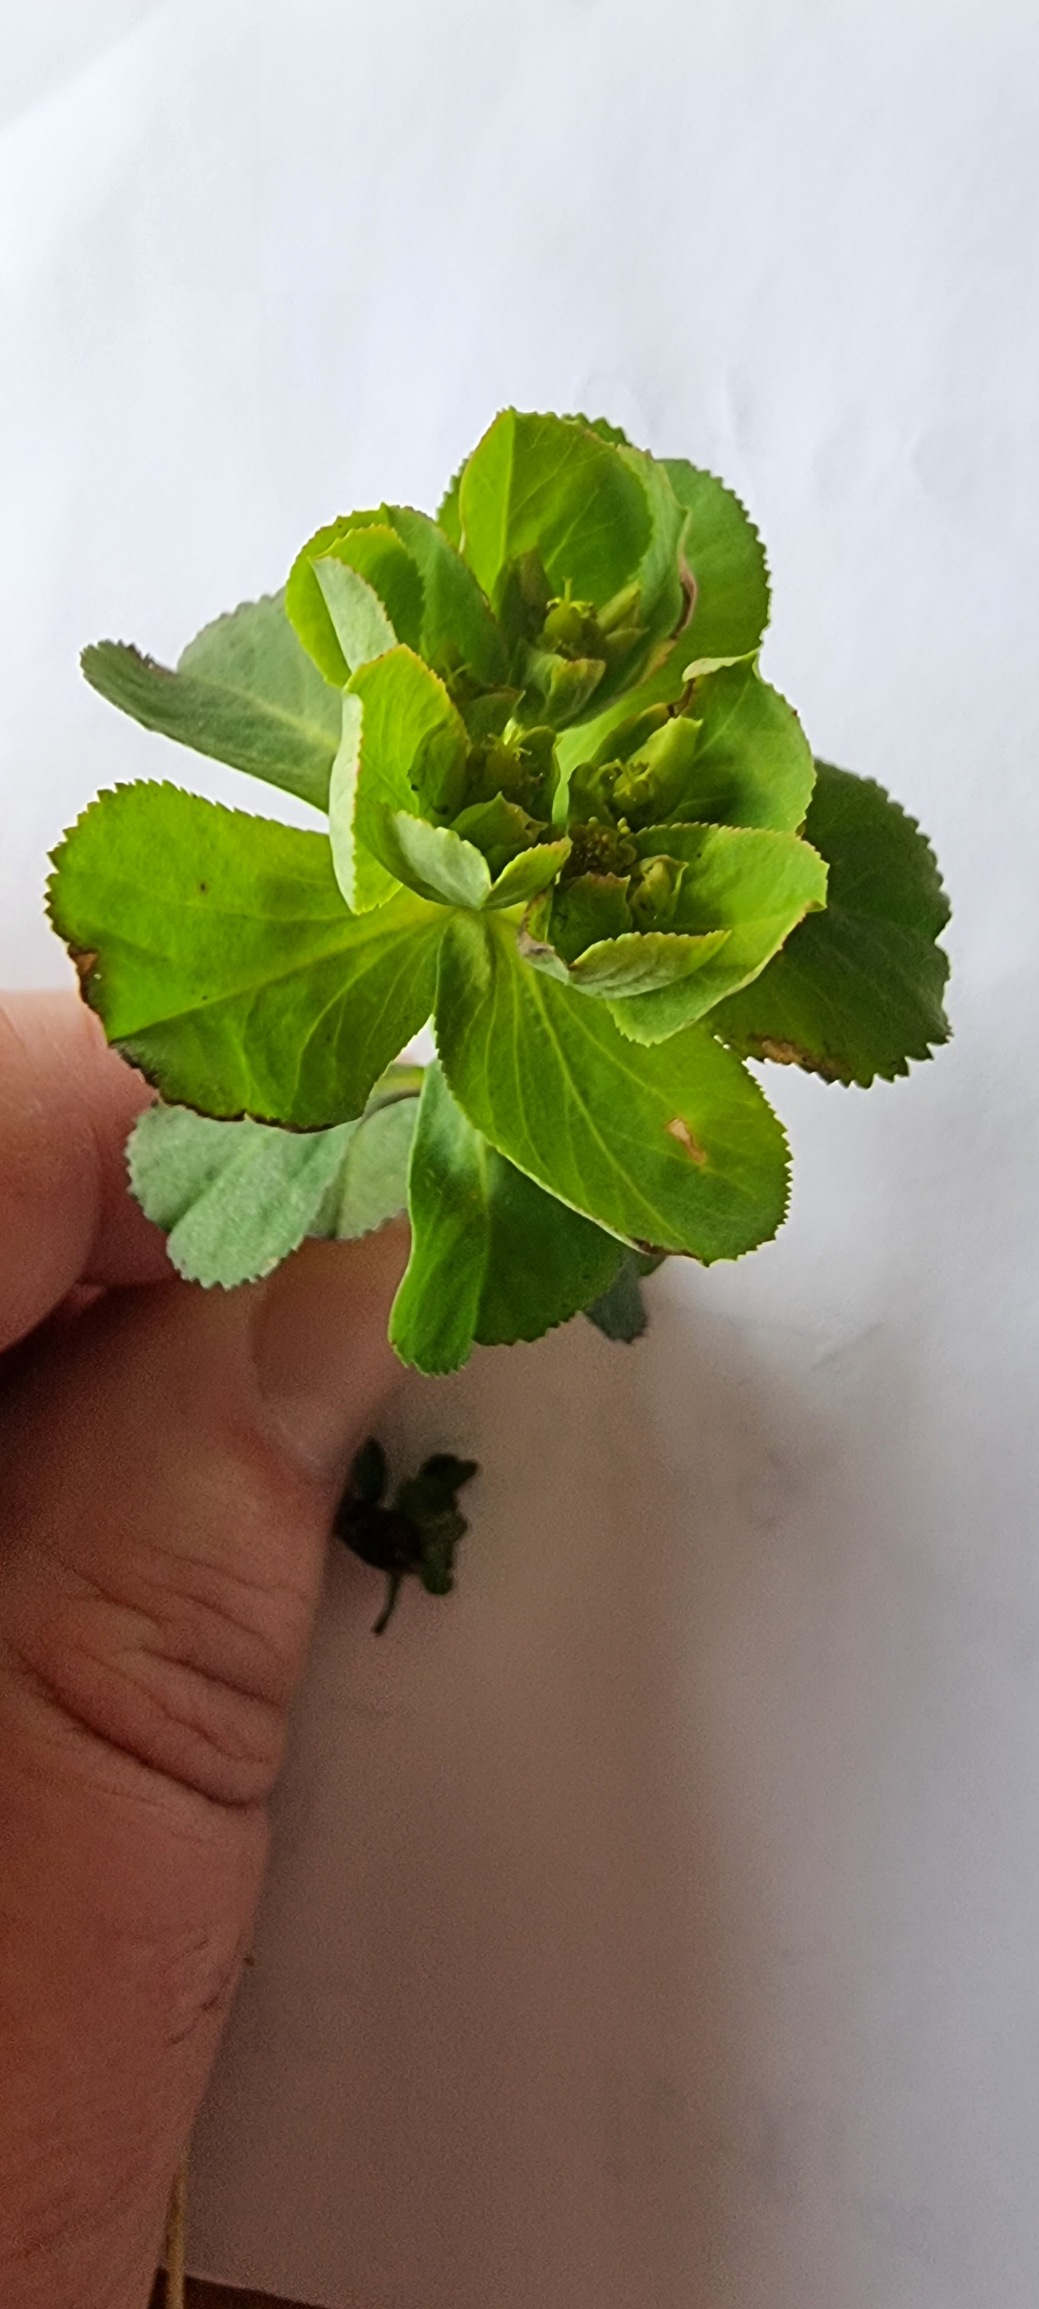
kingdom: Plantae
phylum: Tracheophyta
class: Magnoliopsida
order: Malpighiales
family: Euphorbiaceae
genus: Euphorbia
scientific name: Euphorbia helioscopia
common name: Skærm-vortemælk
